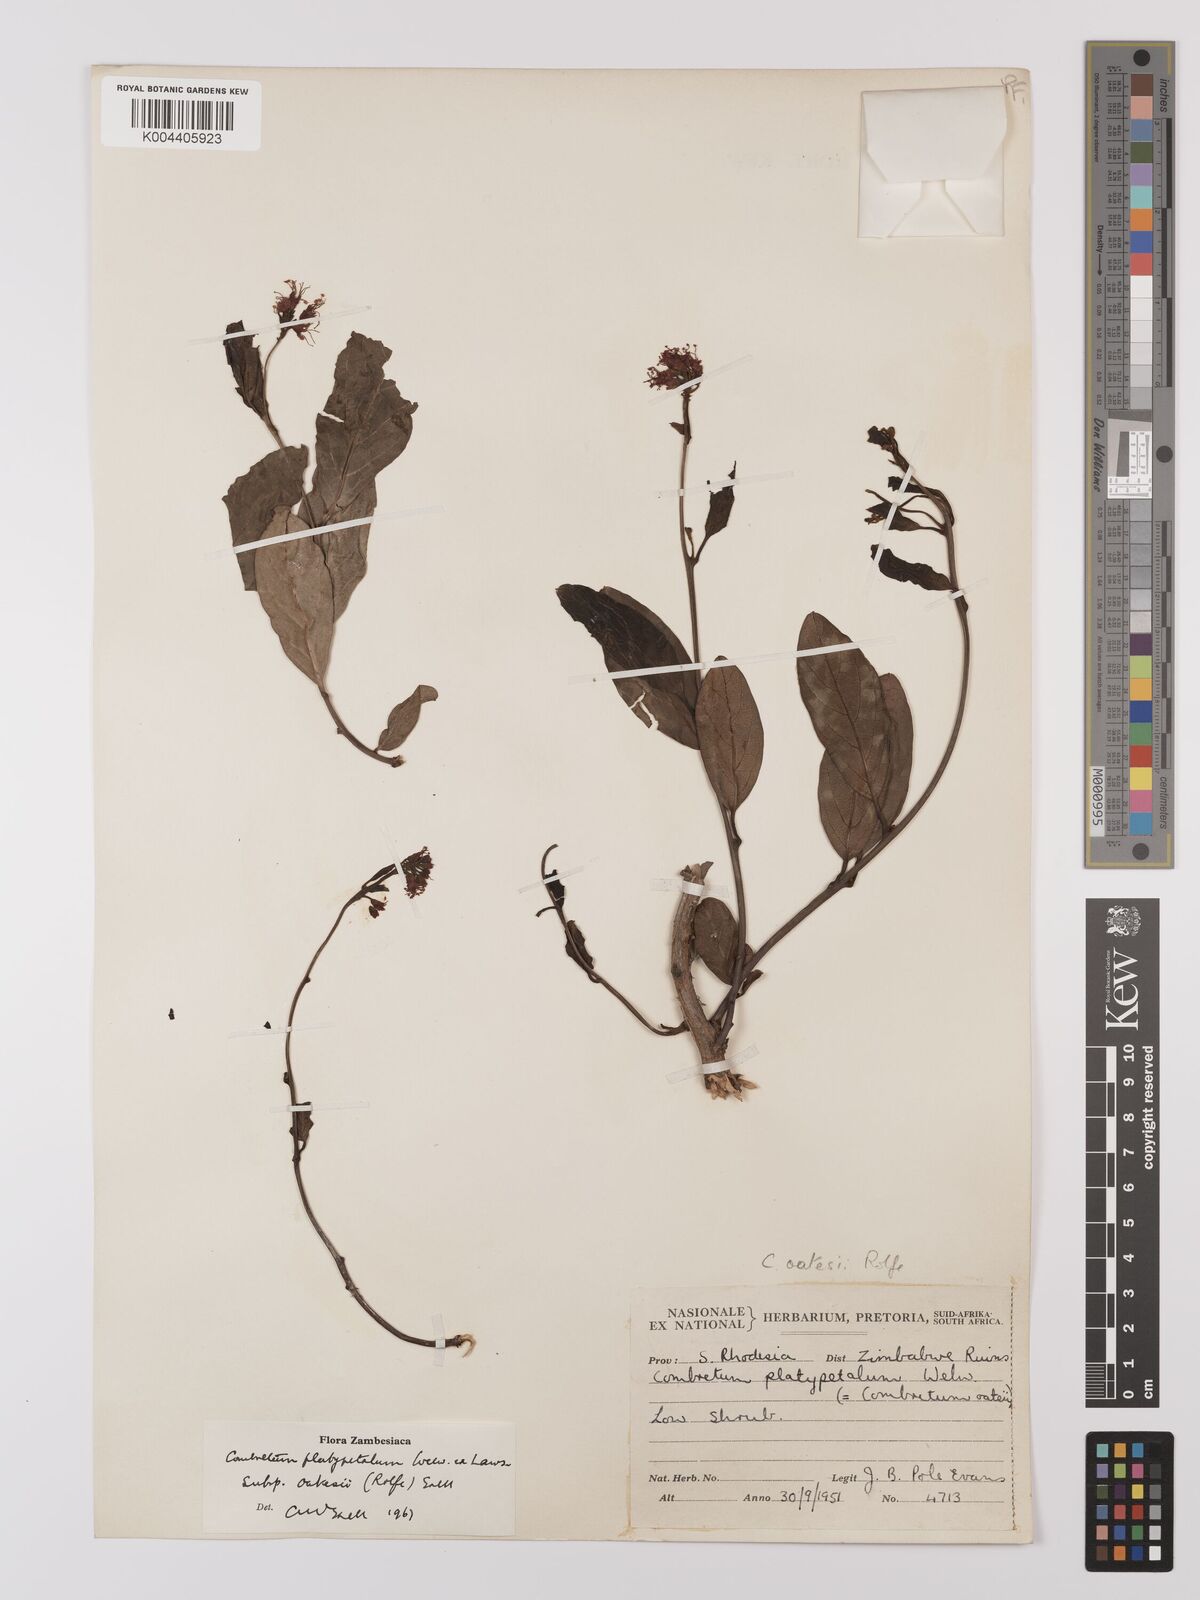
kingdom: Plantae
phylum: Tracheophyta
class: Magnoliopsida
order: Myrtales
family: Combretaceae
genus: Combretum
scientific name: Combretum oatesii
